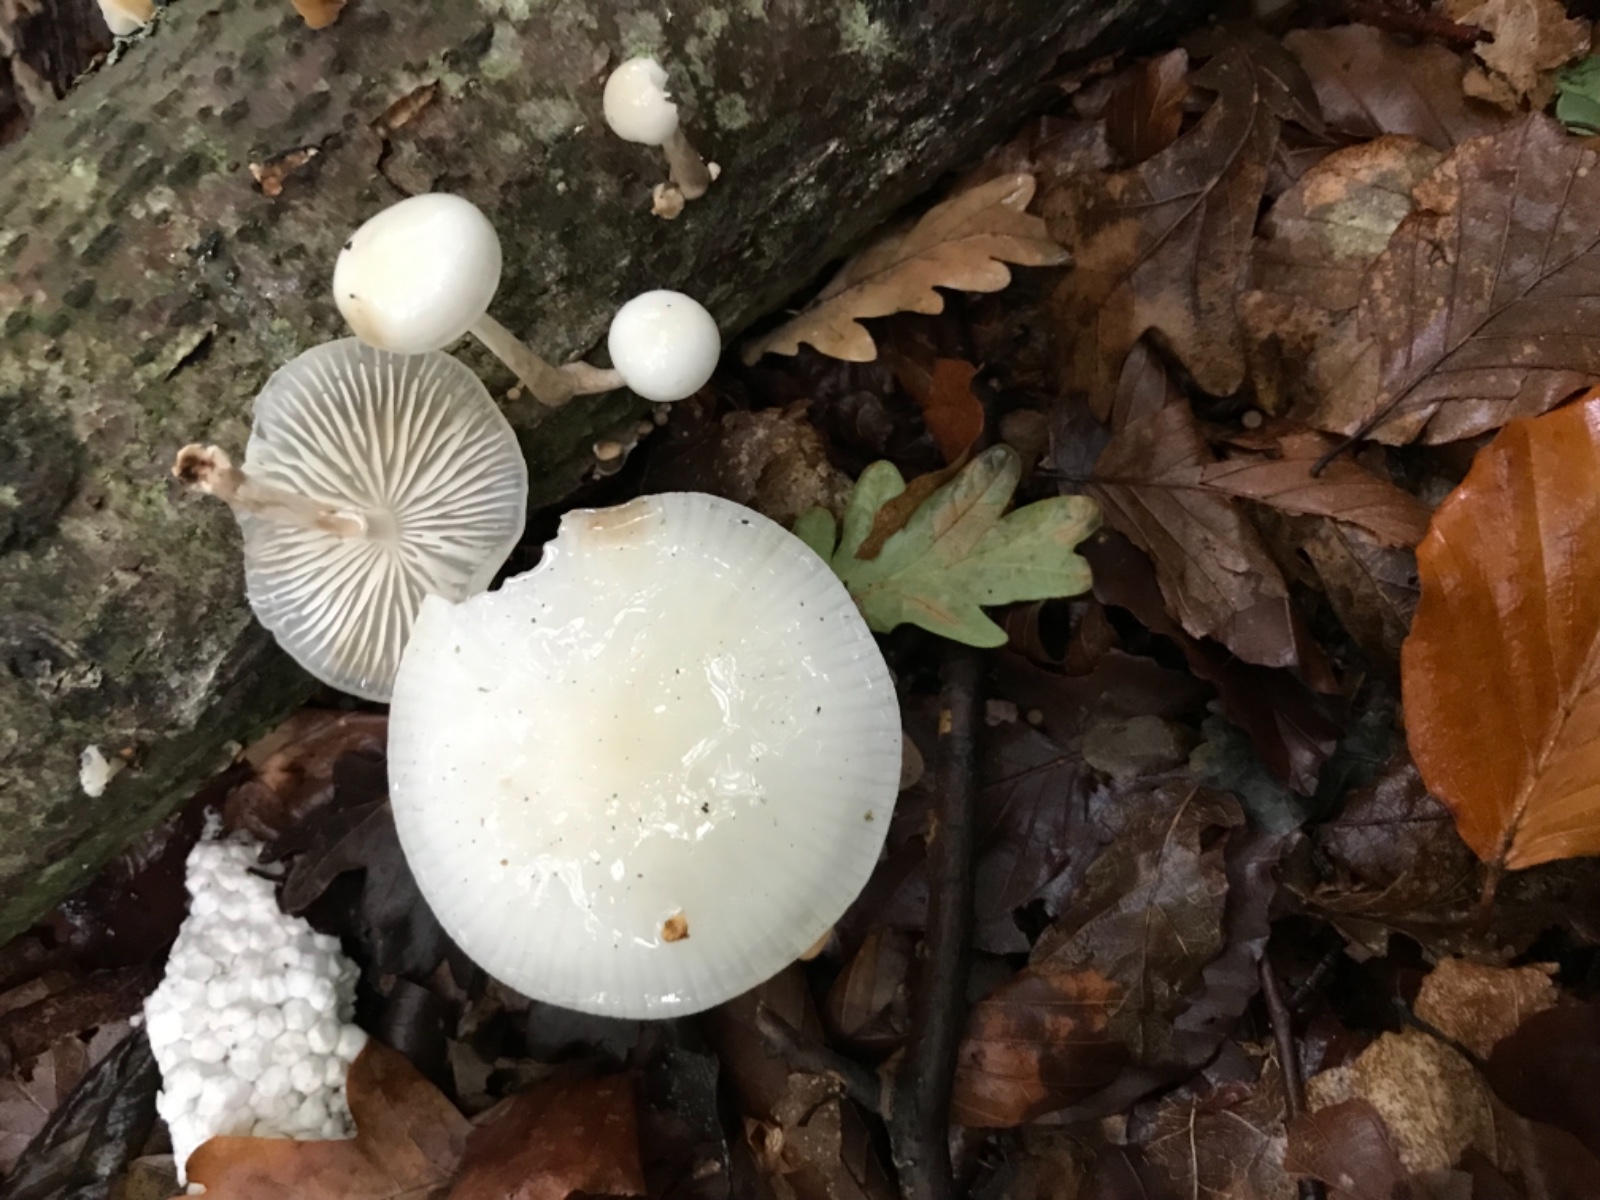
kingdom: Fungi
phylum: Basidiomycota
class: Agaricomycetes
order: Agaricales
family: Physalacriaceae
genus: Mucidula
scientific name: Mucidula mucida
